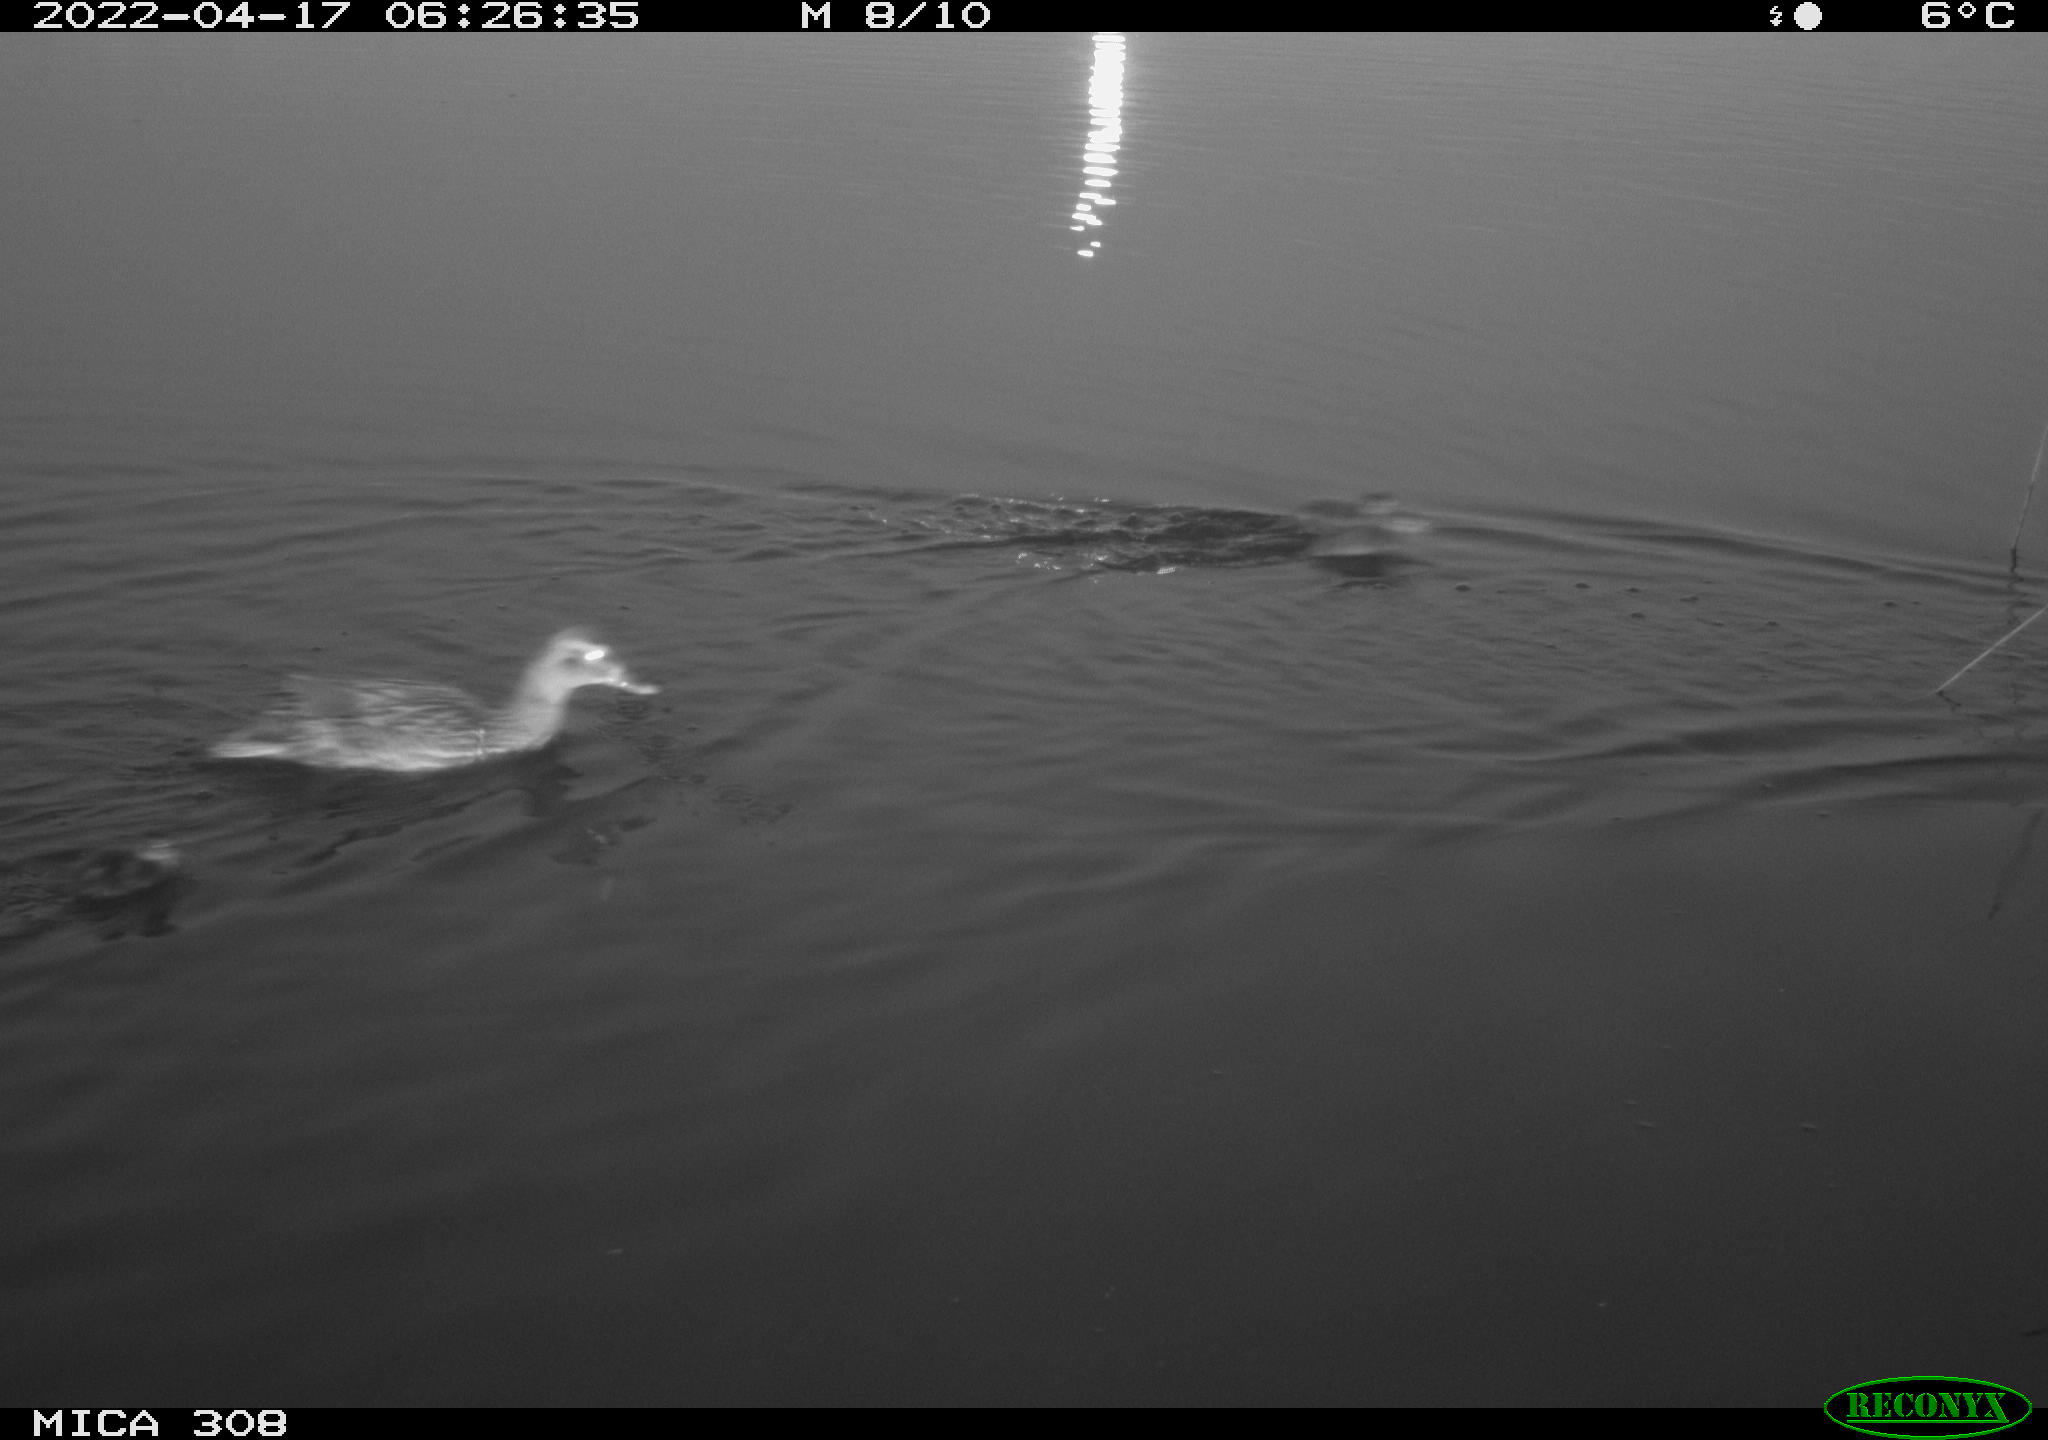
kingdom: Animalia
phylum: Chordata
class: Aves
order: Anseriformes
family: Anatidae
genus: Anas
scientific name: Anas platyrhynchos
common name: Mallard
